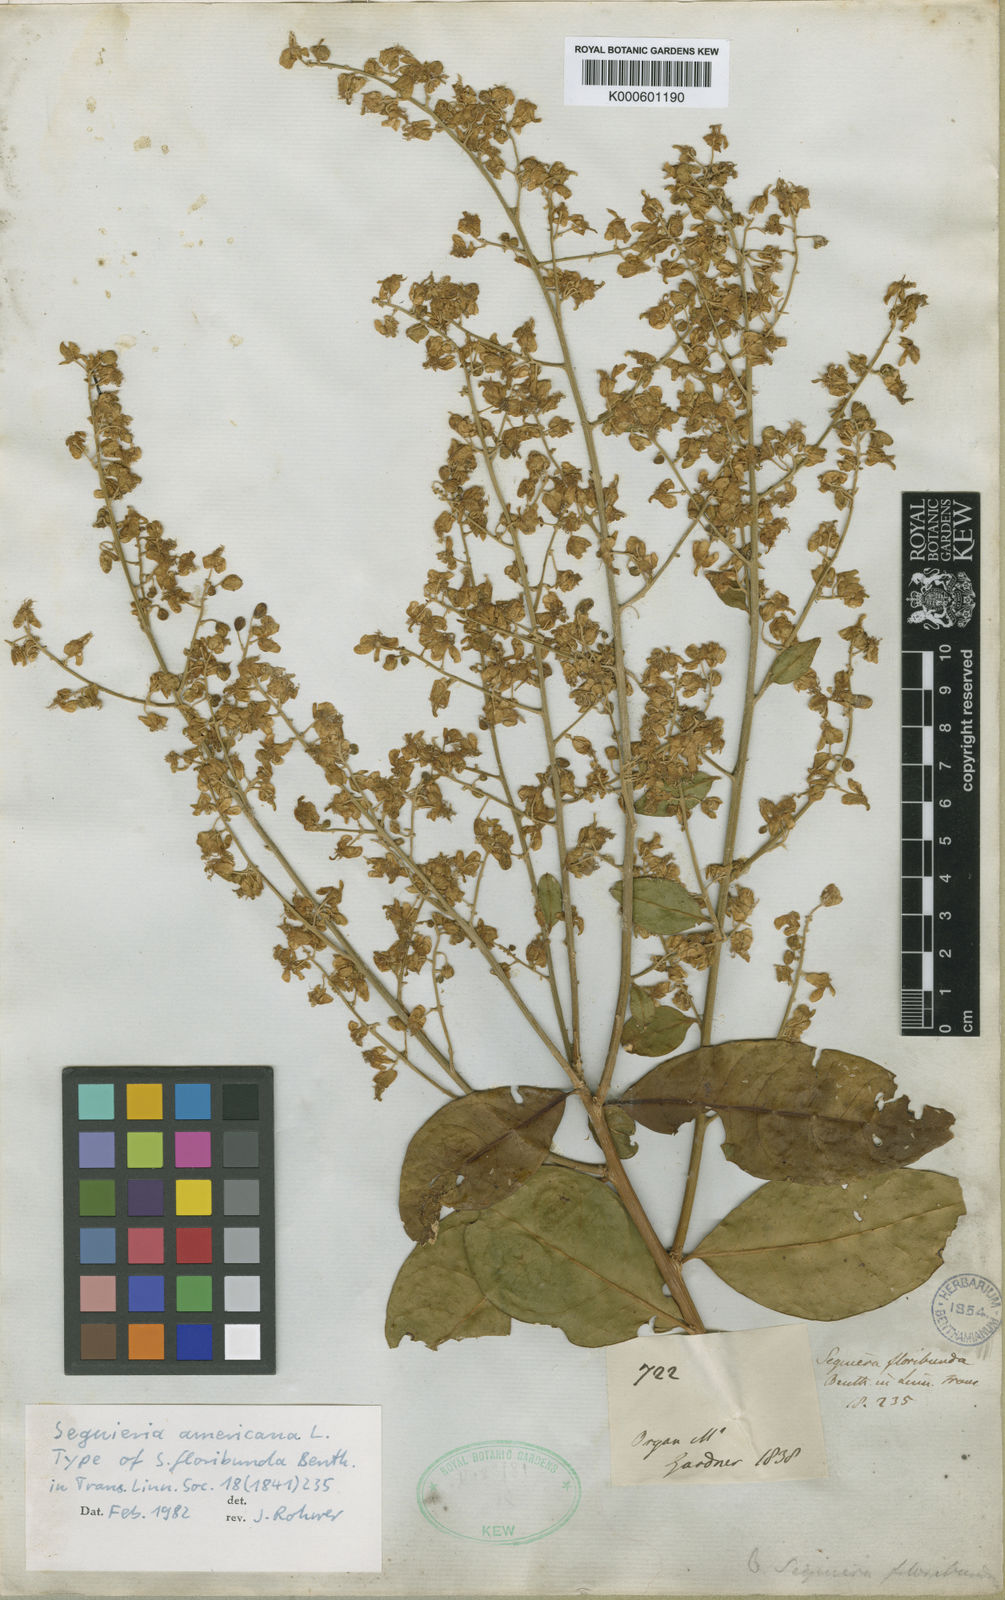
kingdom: Plantae
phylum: Tracheophyta
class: Magnoliopsida
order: Caryophyllales
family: Phytolaccaceae
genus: Seguieria
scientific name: Seguieria americana
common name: American seguieria
